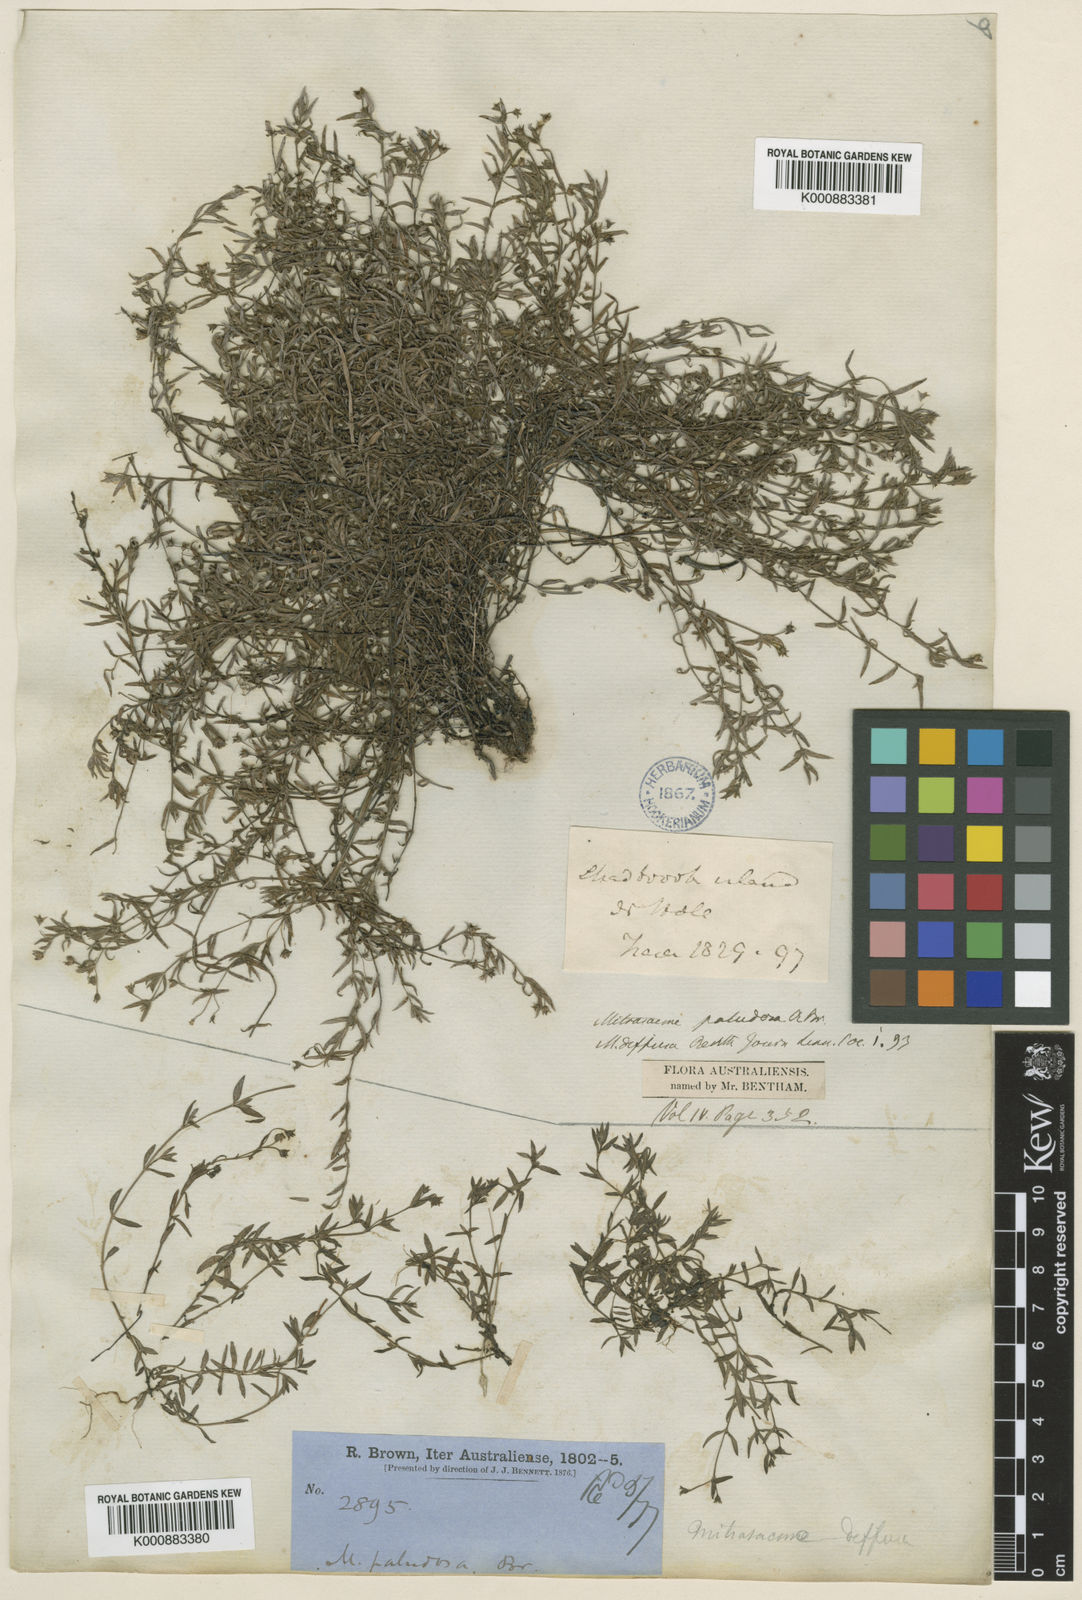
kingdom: Plantae
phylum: Tracheophyta
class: Magnoliopsida
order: Gentianales
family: Loganiaceae
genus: Mitrasacme
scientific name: Mitrasacme paludosa
